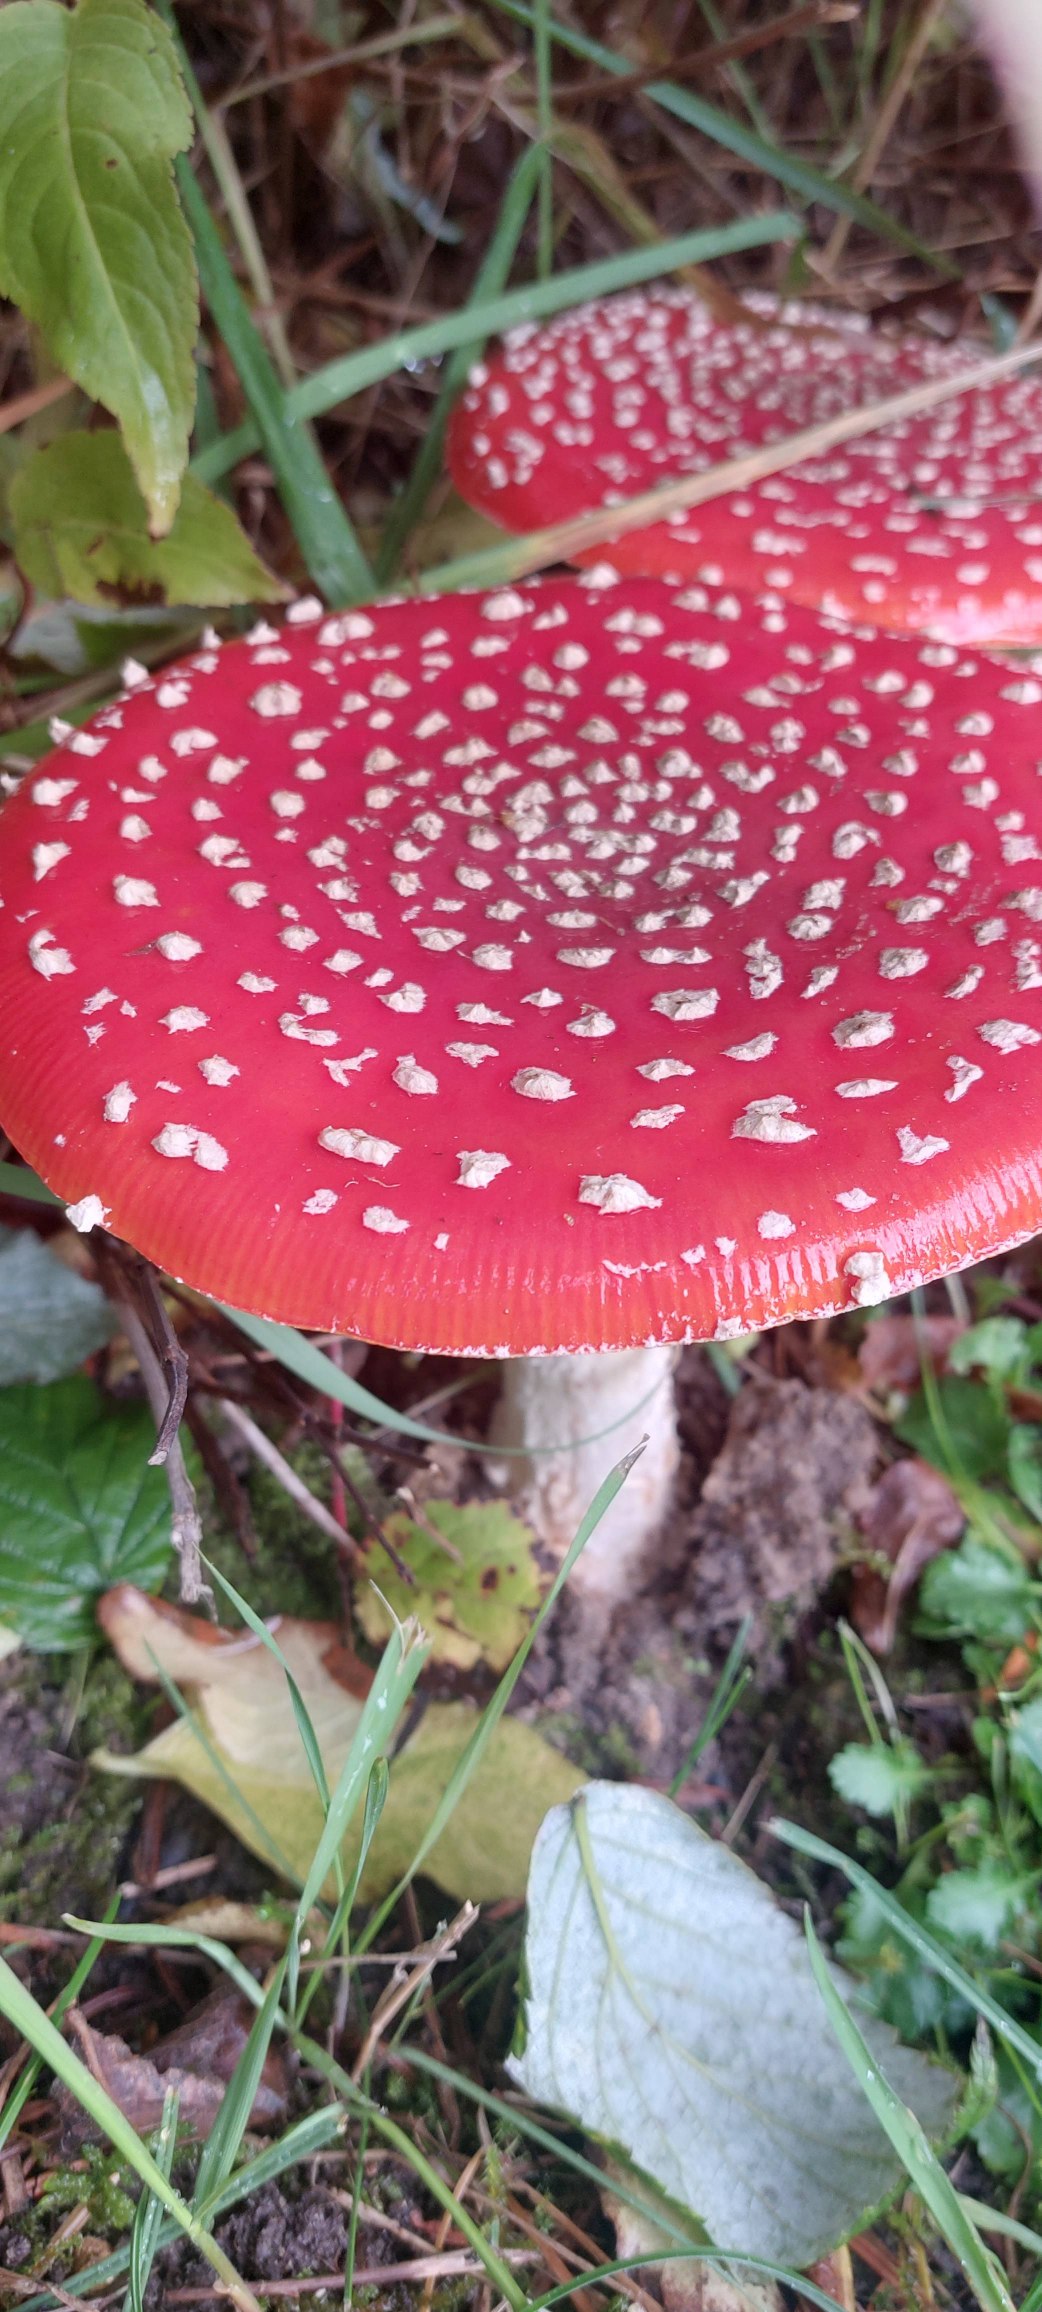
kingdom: Fungi
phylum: Basidiomycota
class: Agaricomycetes
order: Agaricales
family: Amanitaceae
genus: Amanita
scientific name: Amanita muscaria
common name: Rød fluesvamp
